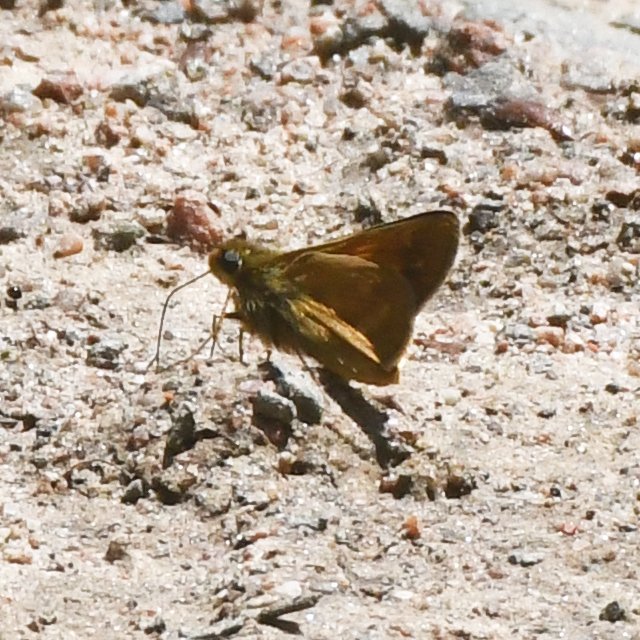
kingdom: Animalia
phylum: Arthropoda
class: Insecta
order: Lepidoptera
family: Hesperiidae
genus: Euphyes
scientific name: Euphyes
